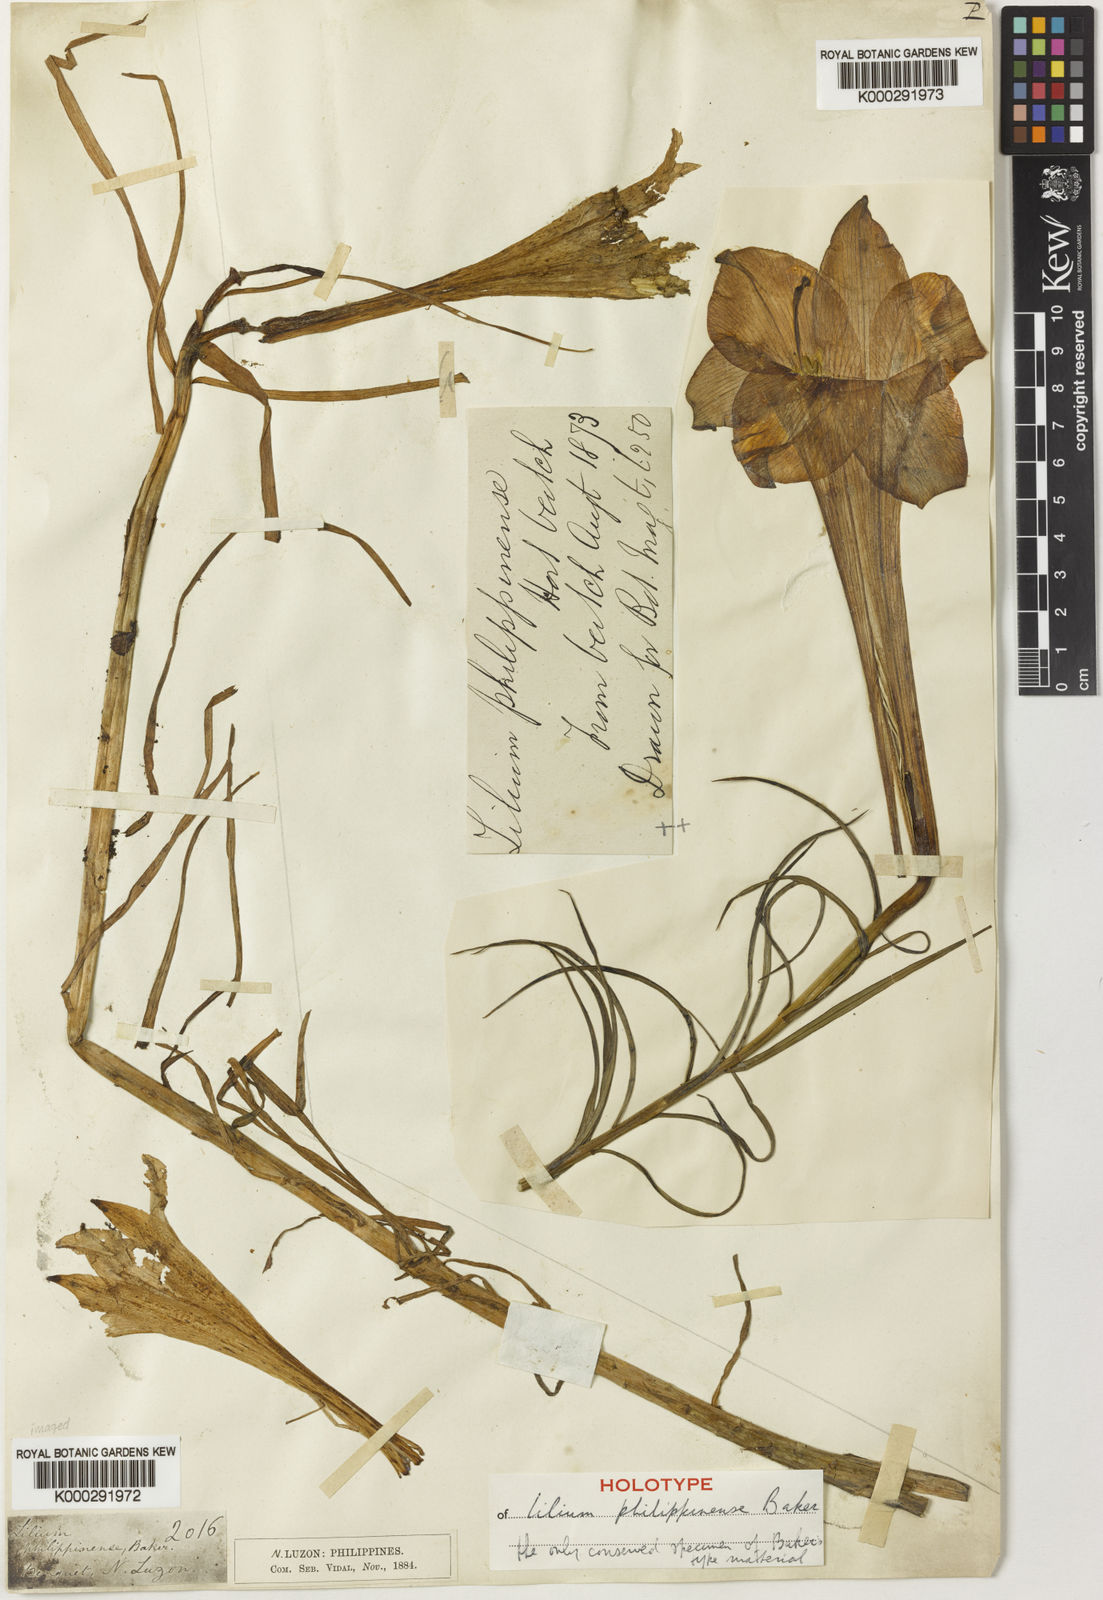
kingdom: Plantae
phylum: Tracheophyta
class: Liliopsida
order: Liliales
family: Liliaceae
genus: Lilium
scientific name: Lilium philippinense
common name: Philippine lily
